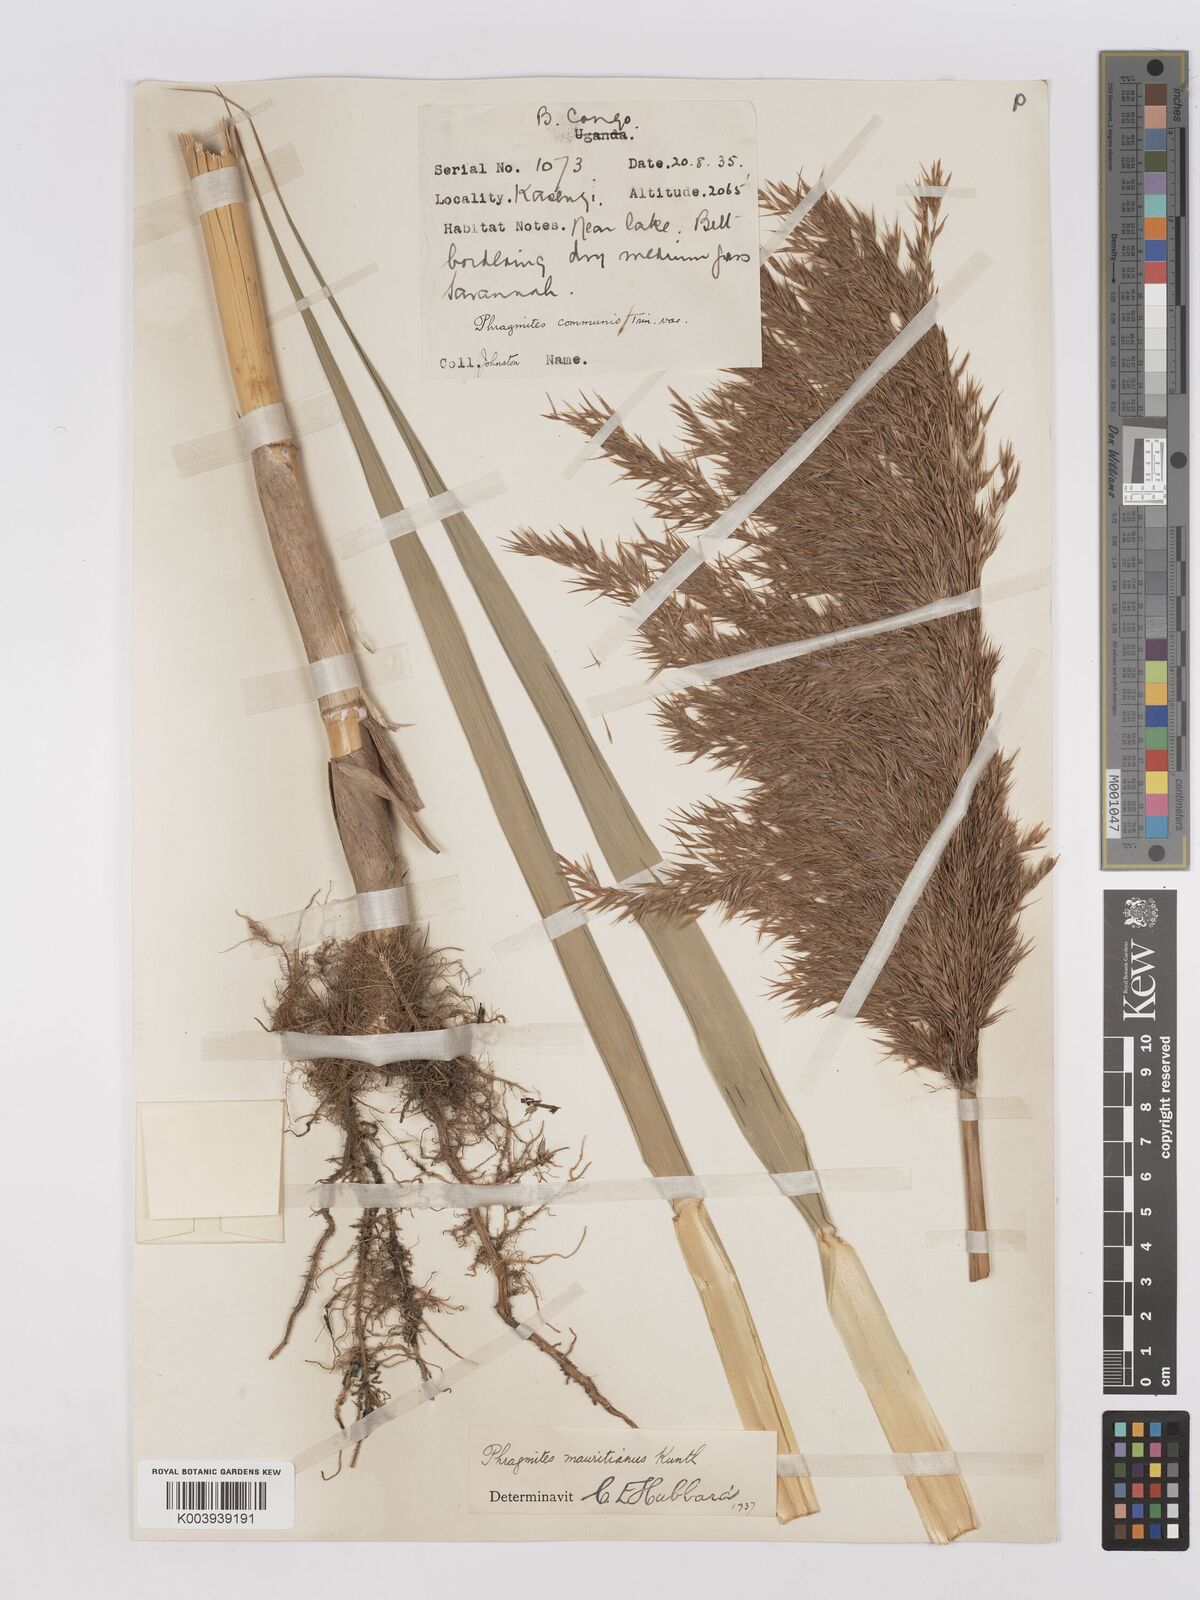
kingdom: Plantae
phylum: Tracheophyta
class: Liliopsida
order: Poales
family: Poaceae
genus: Phragmites
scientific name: Phragmites mauritianus
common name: Reed grass
